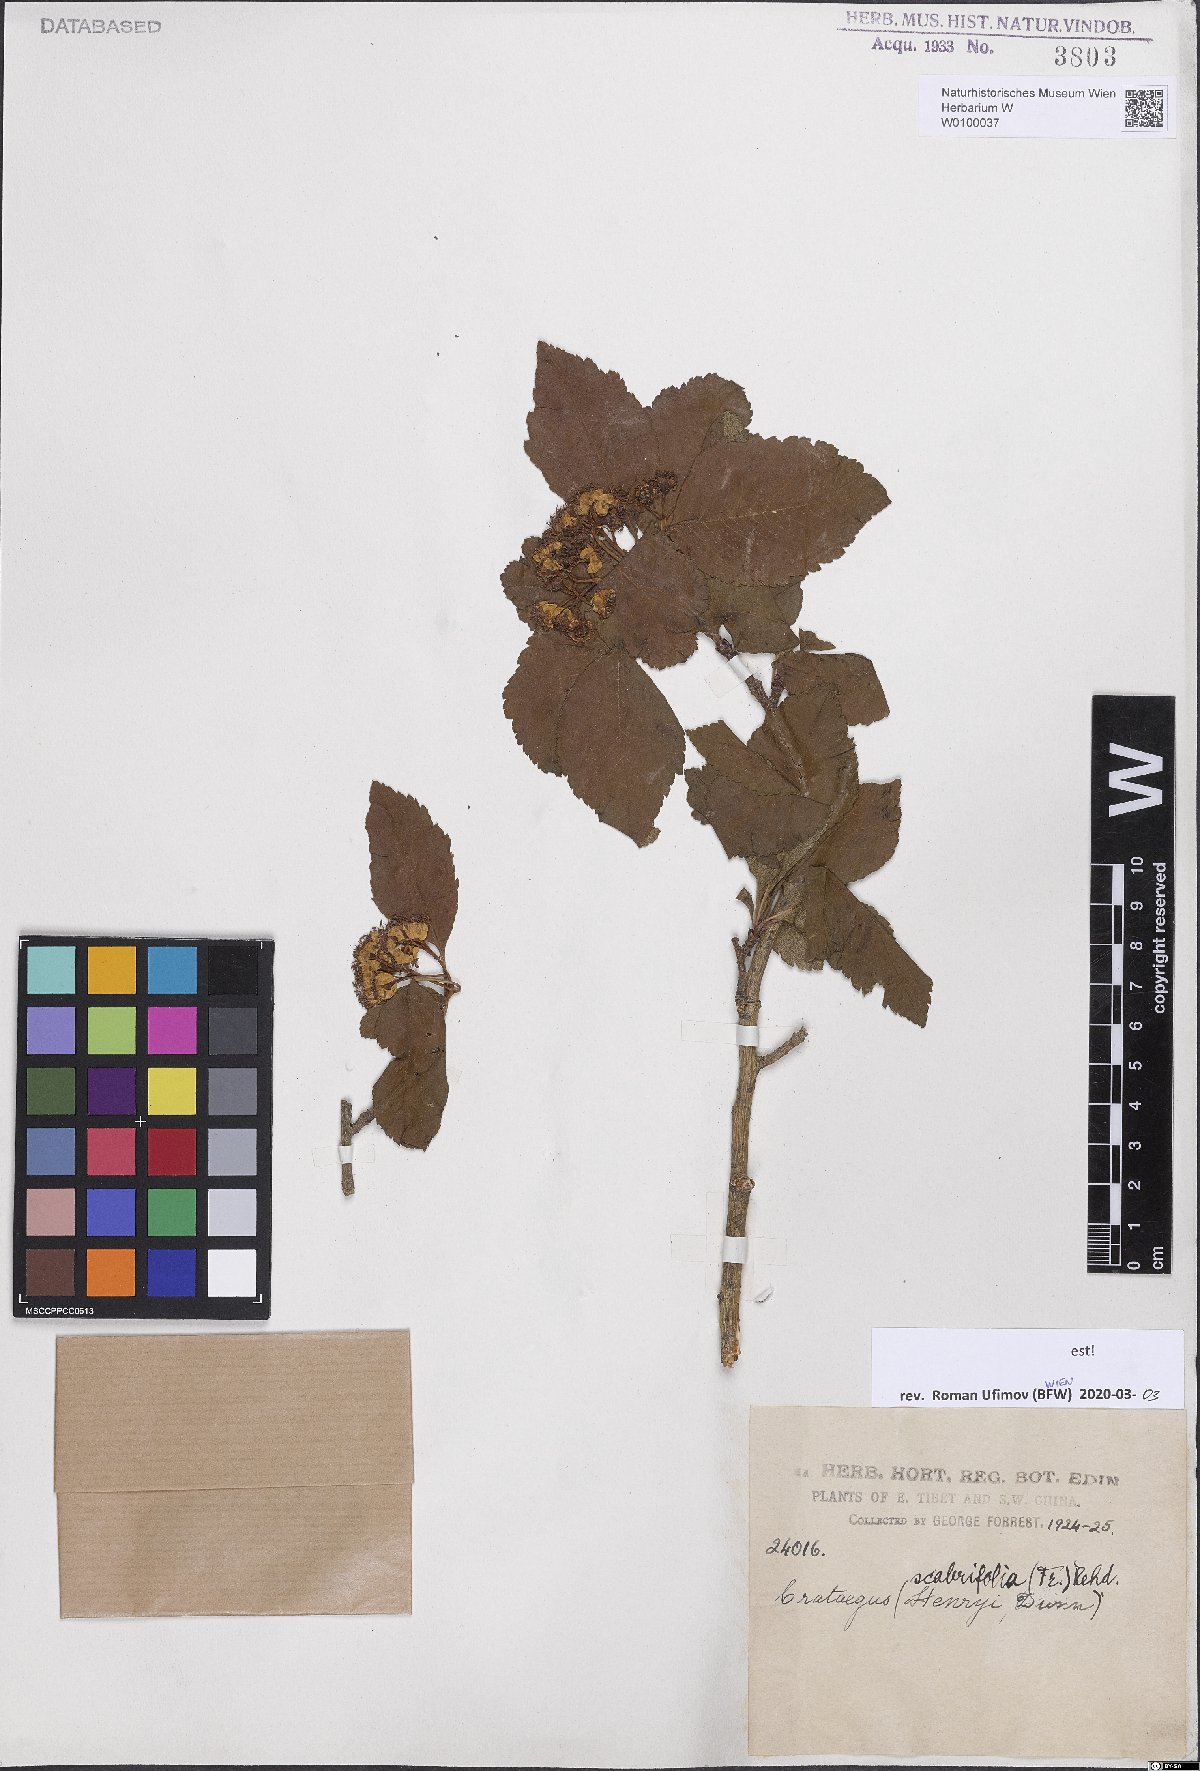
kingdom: Plantae
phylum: Tracheophyta
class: Magnoliopsida
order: Rosales
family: Rosaceae
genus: Crataegus
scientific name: Crataegus scabrifolia
